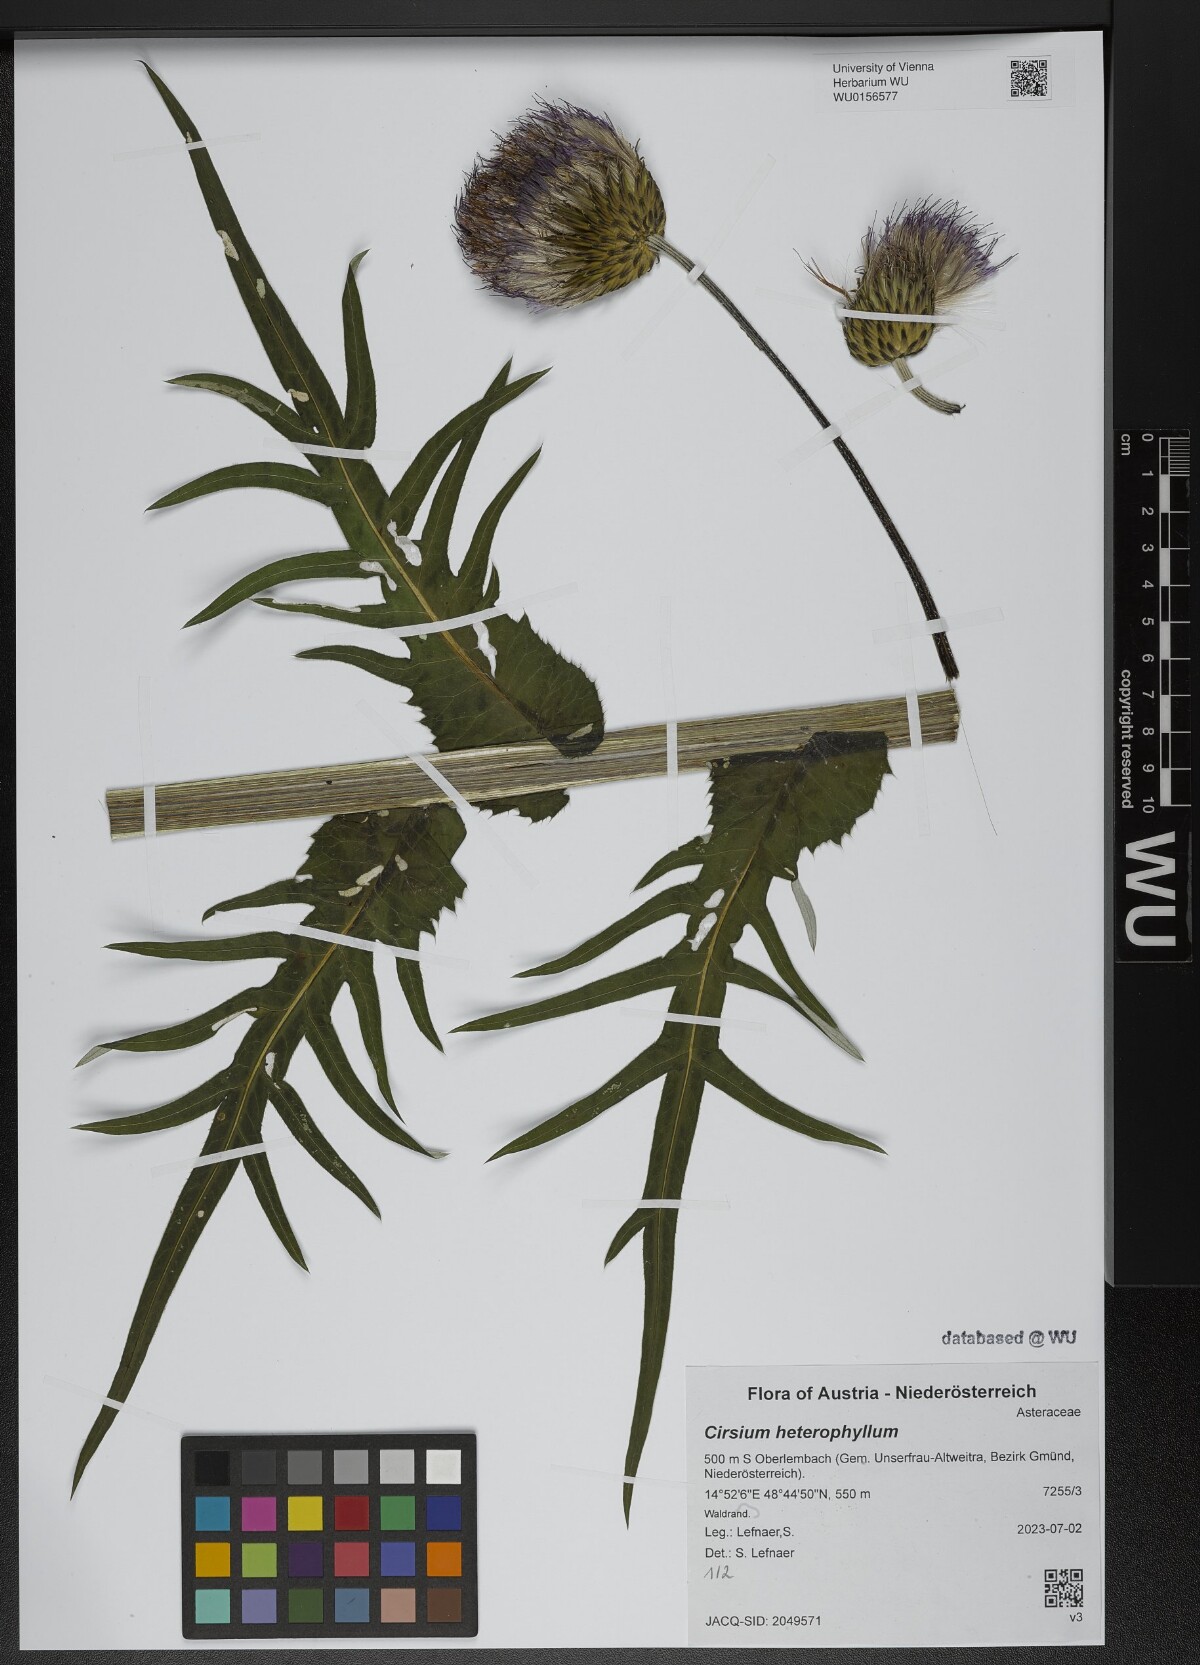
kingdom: Plantae
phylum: Tracheophyta
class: Magnoliopsida
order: Asterales
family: Asteraceae
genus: Cirsium
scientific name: Cirsium heterophyllum
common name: Melancholy thistle
